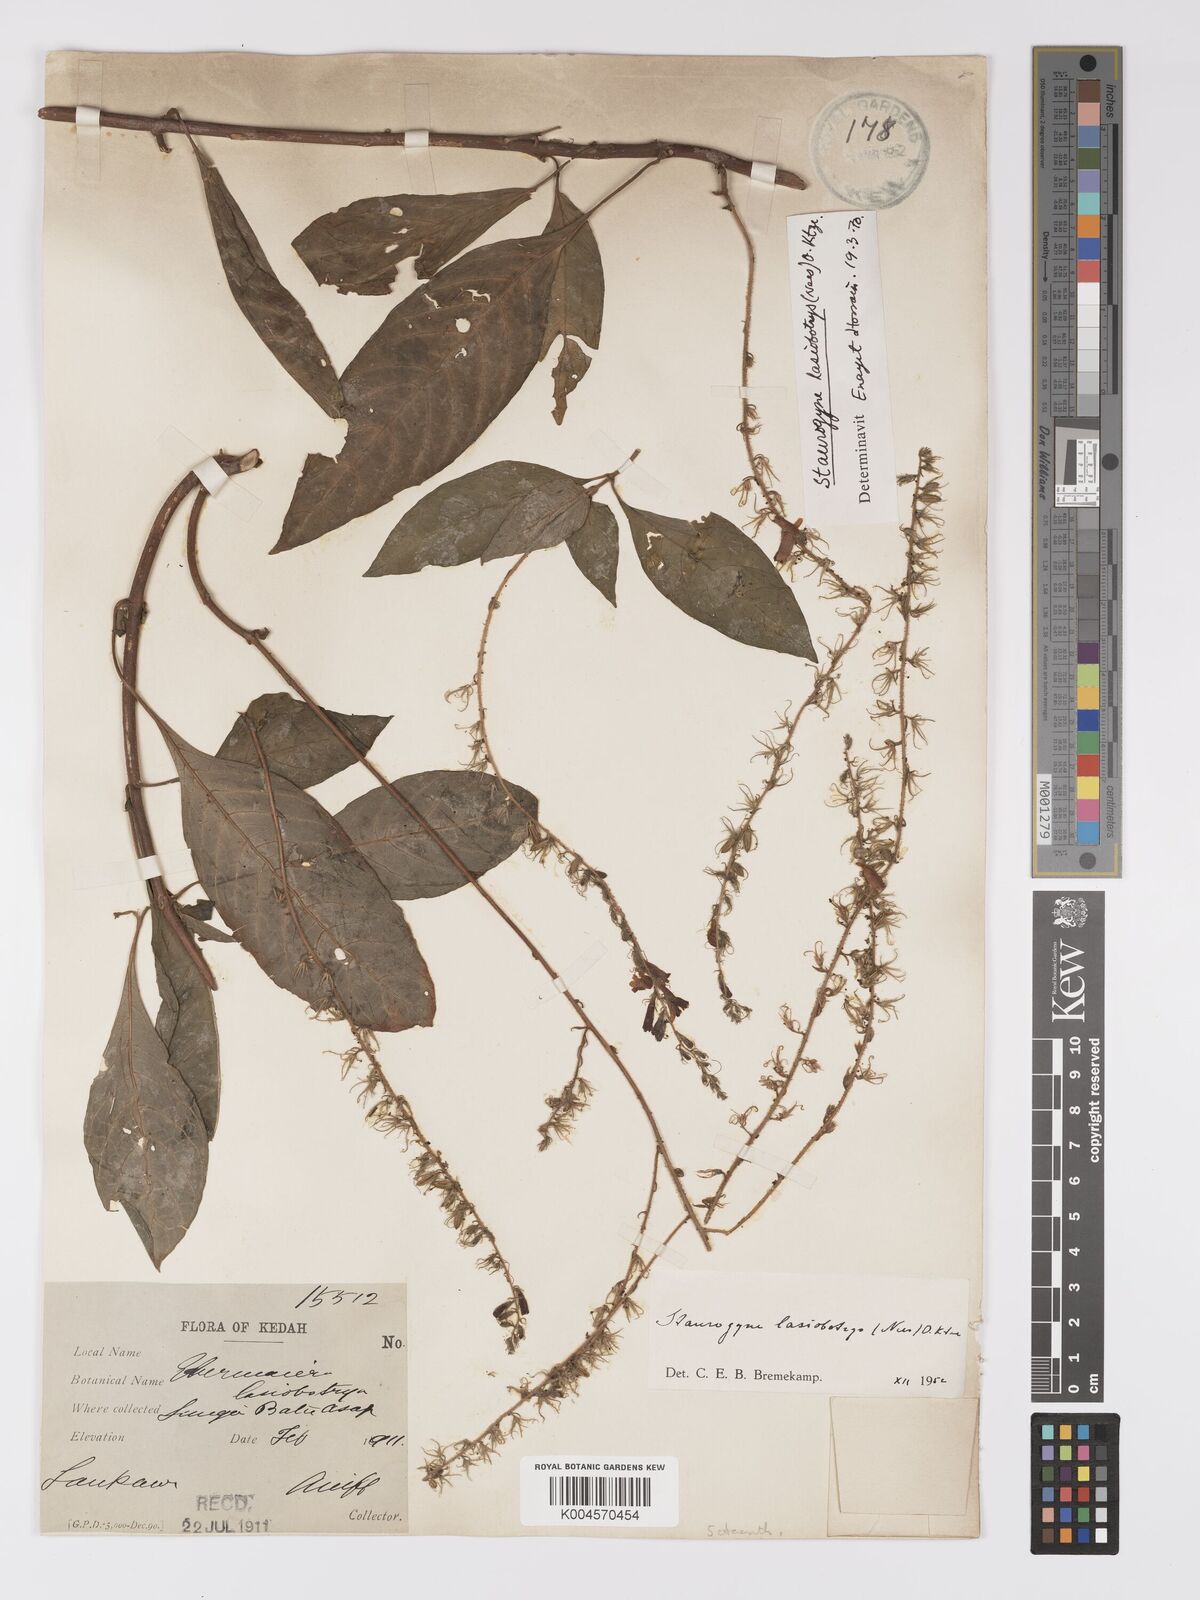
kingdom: Plantae
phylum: Tracheophyta
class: Magnoliopsida
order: Lamiales
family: Acanthaceae
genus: Staurogyne
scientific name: Staurogyne lasiobotrys
